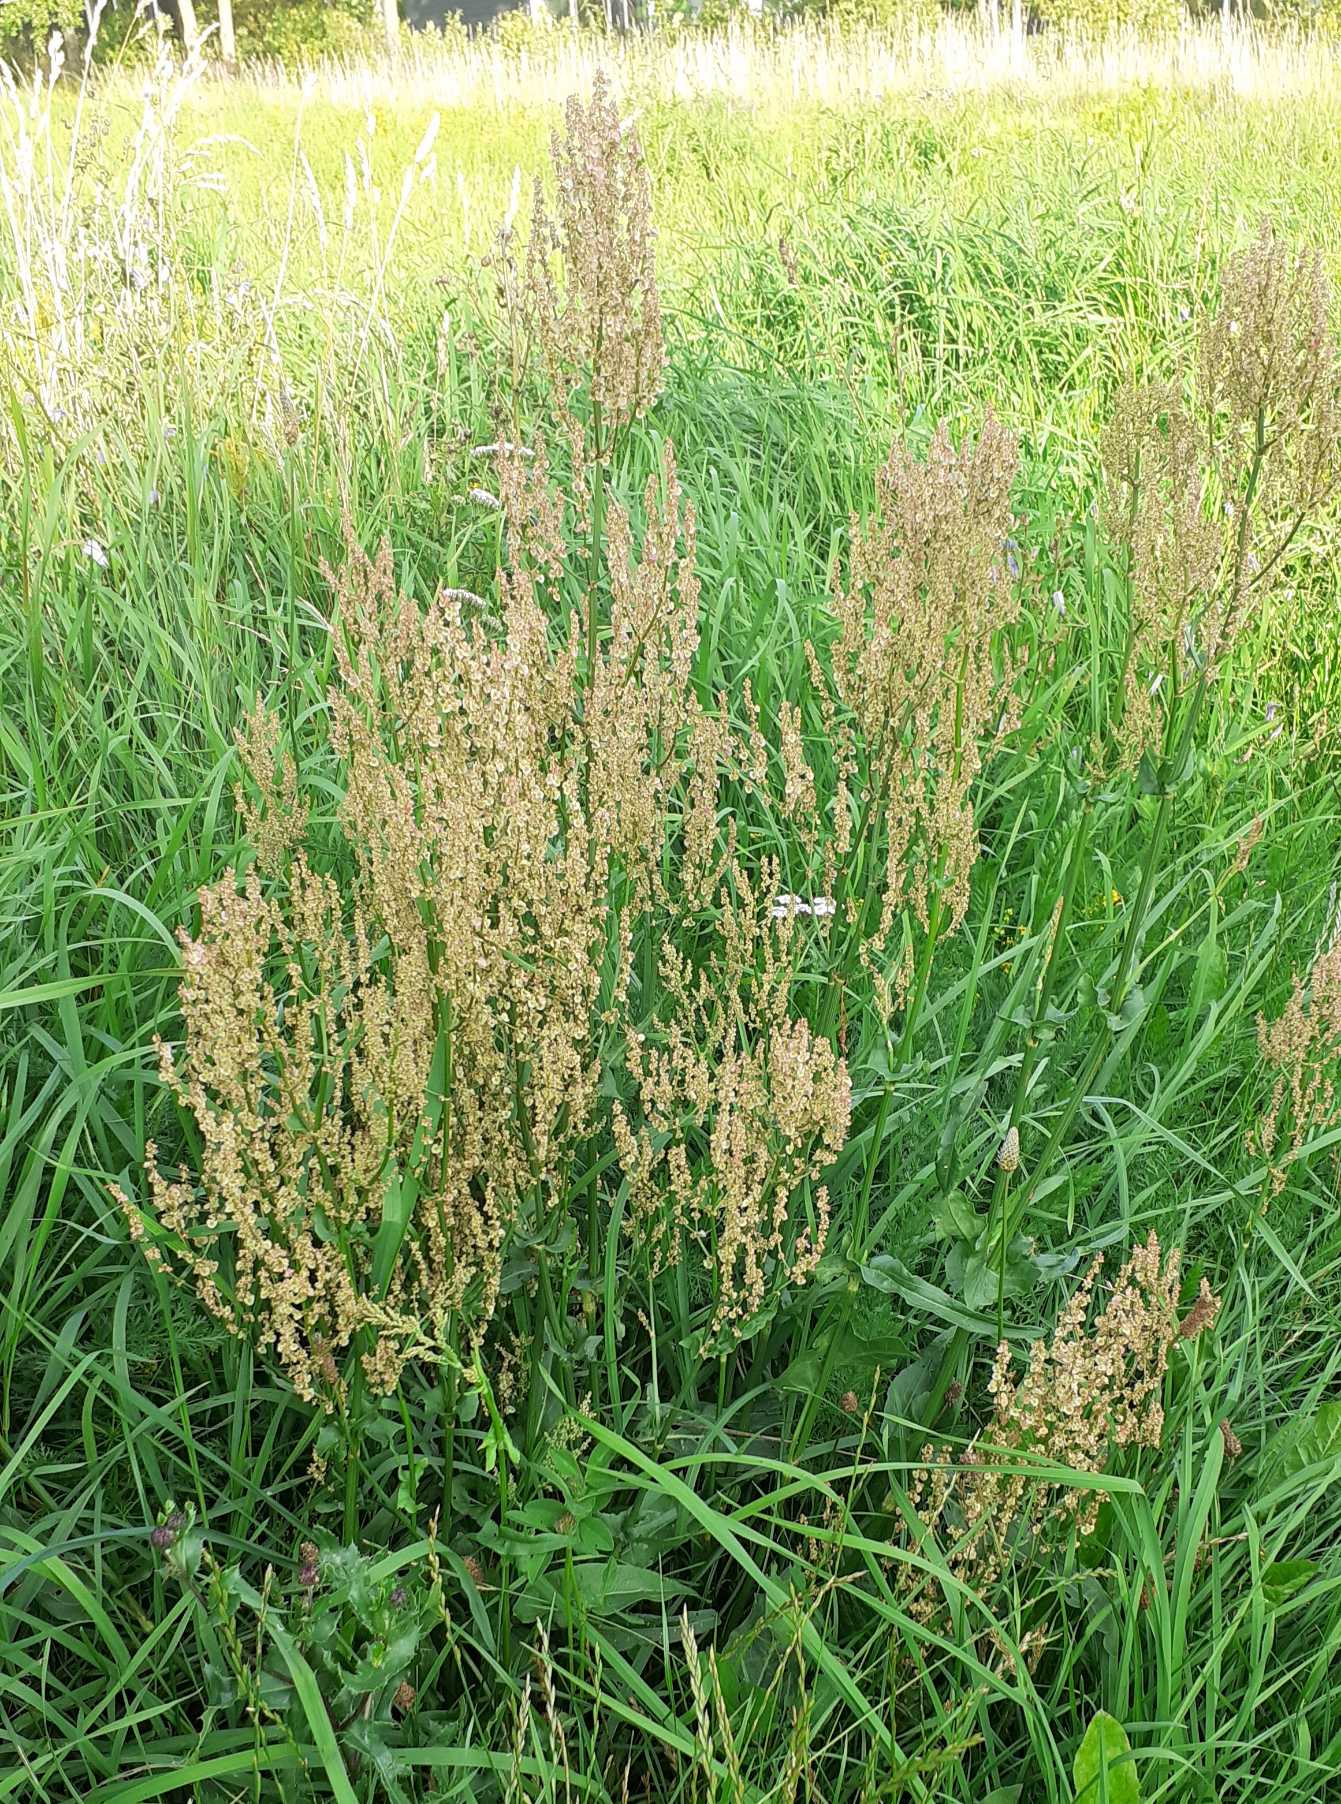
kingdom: Plantae
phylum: Tracheophyta
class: Magnoliopsida
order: Caryophyllales
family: Polygonaceae
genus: Rumex
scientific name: Rumex thyrsiflorus
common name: Dusk-syre
